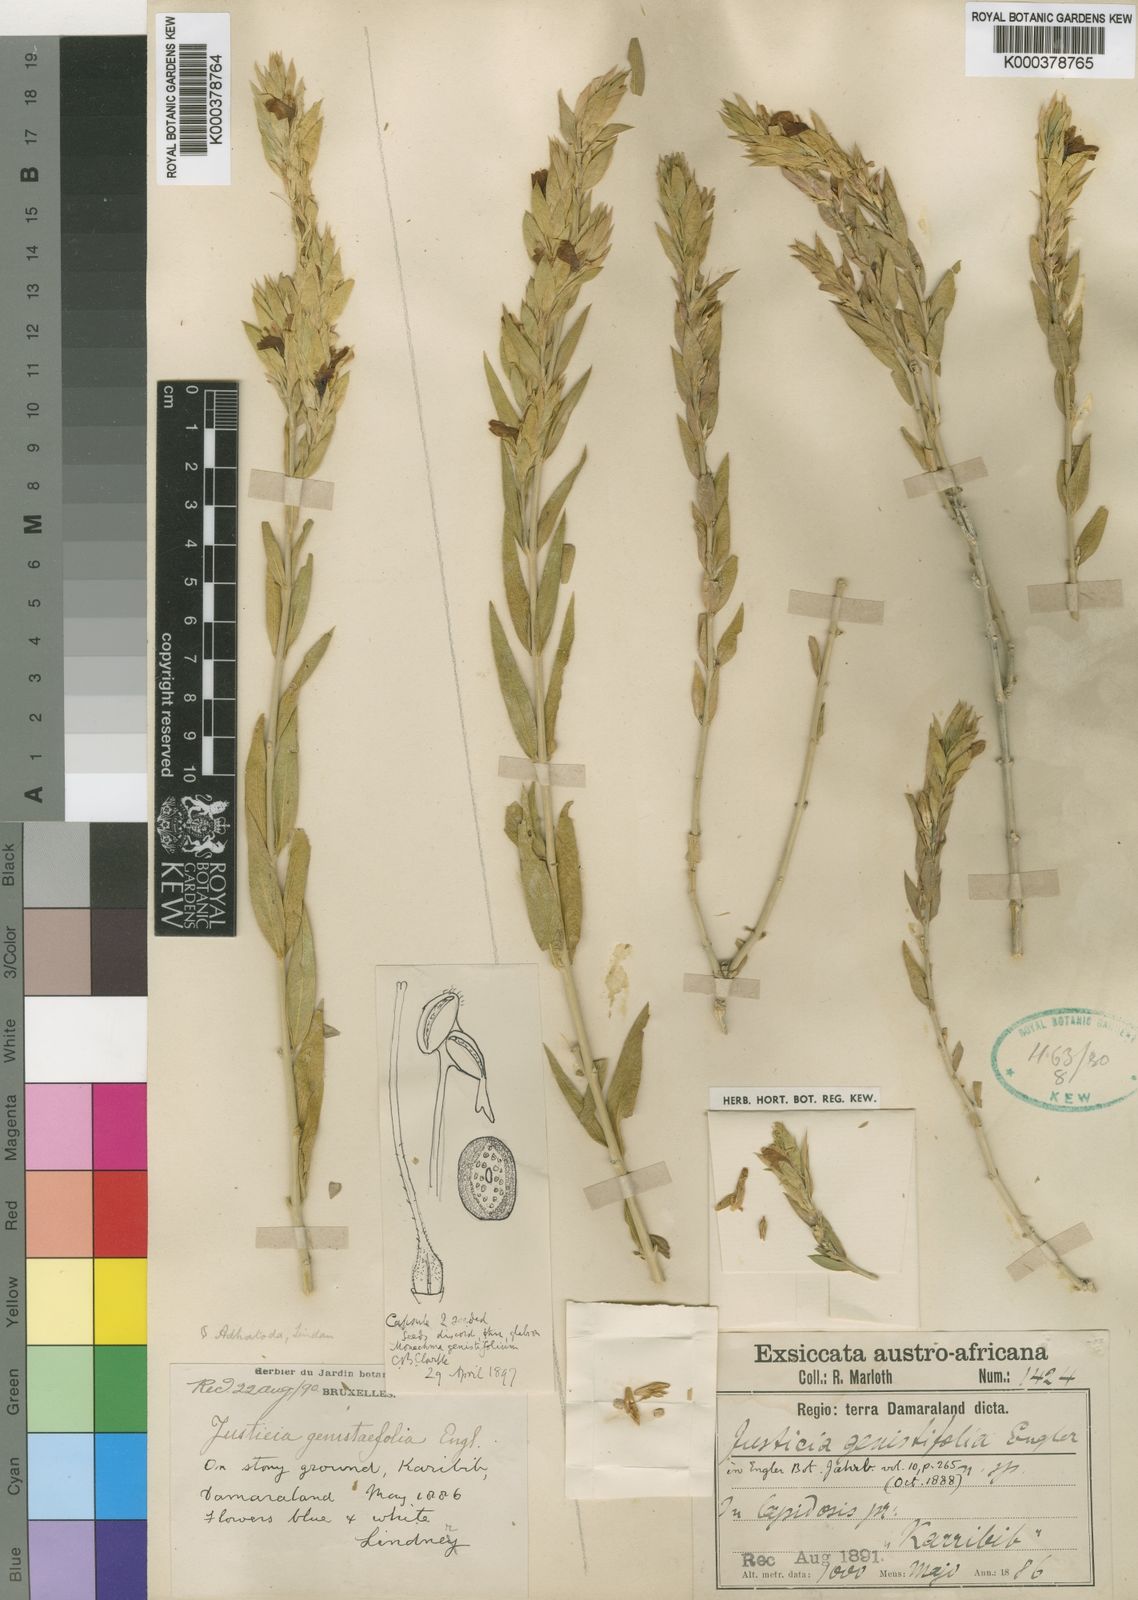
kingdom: Plantae
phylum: Tracheophyta
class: Magnoliopsida
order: Lamiales
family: Acanthaceae
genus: Monechma
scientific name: Monechma genistifolium
